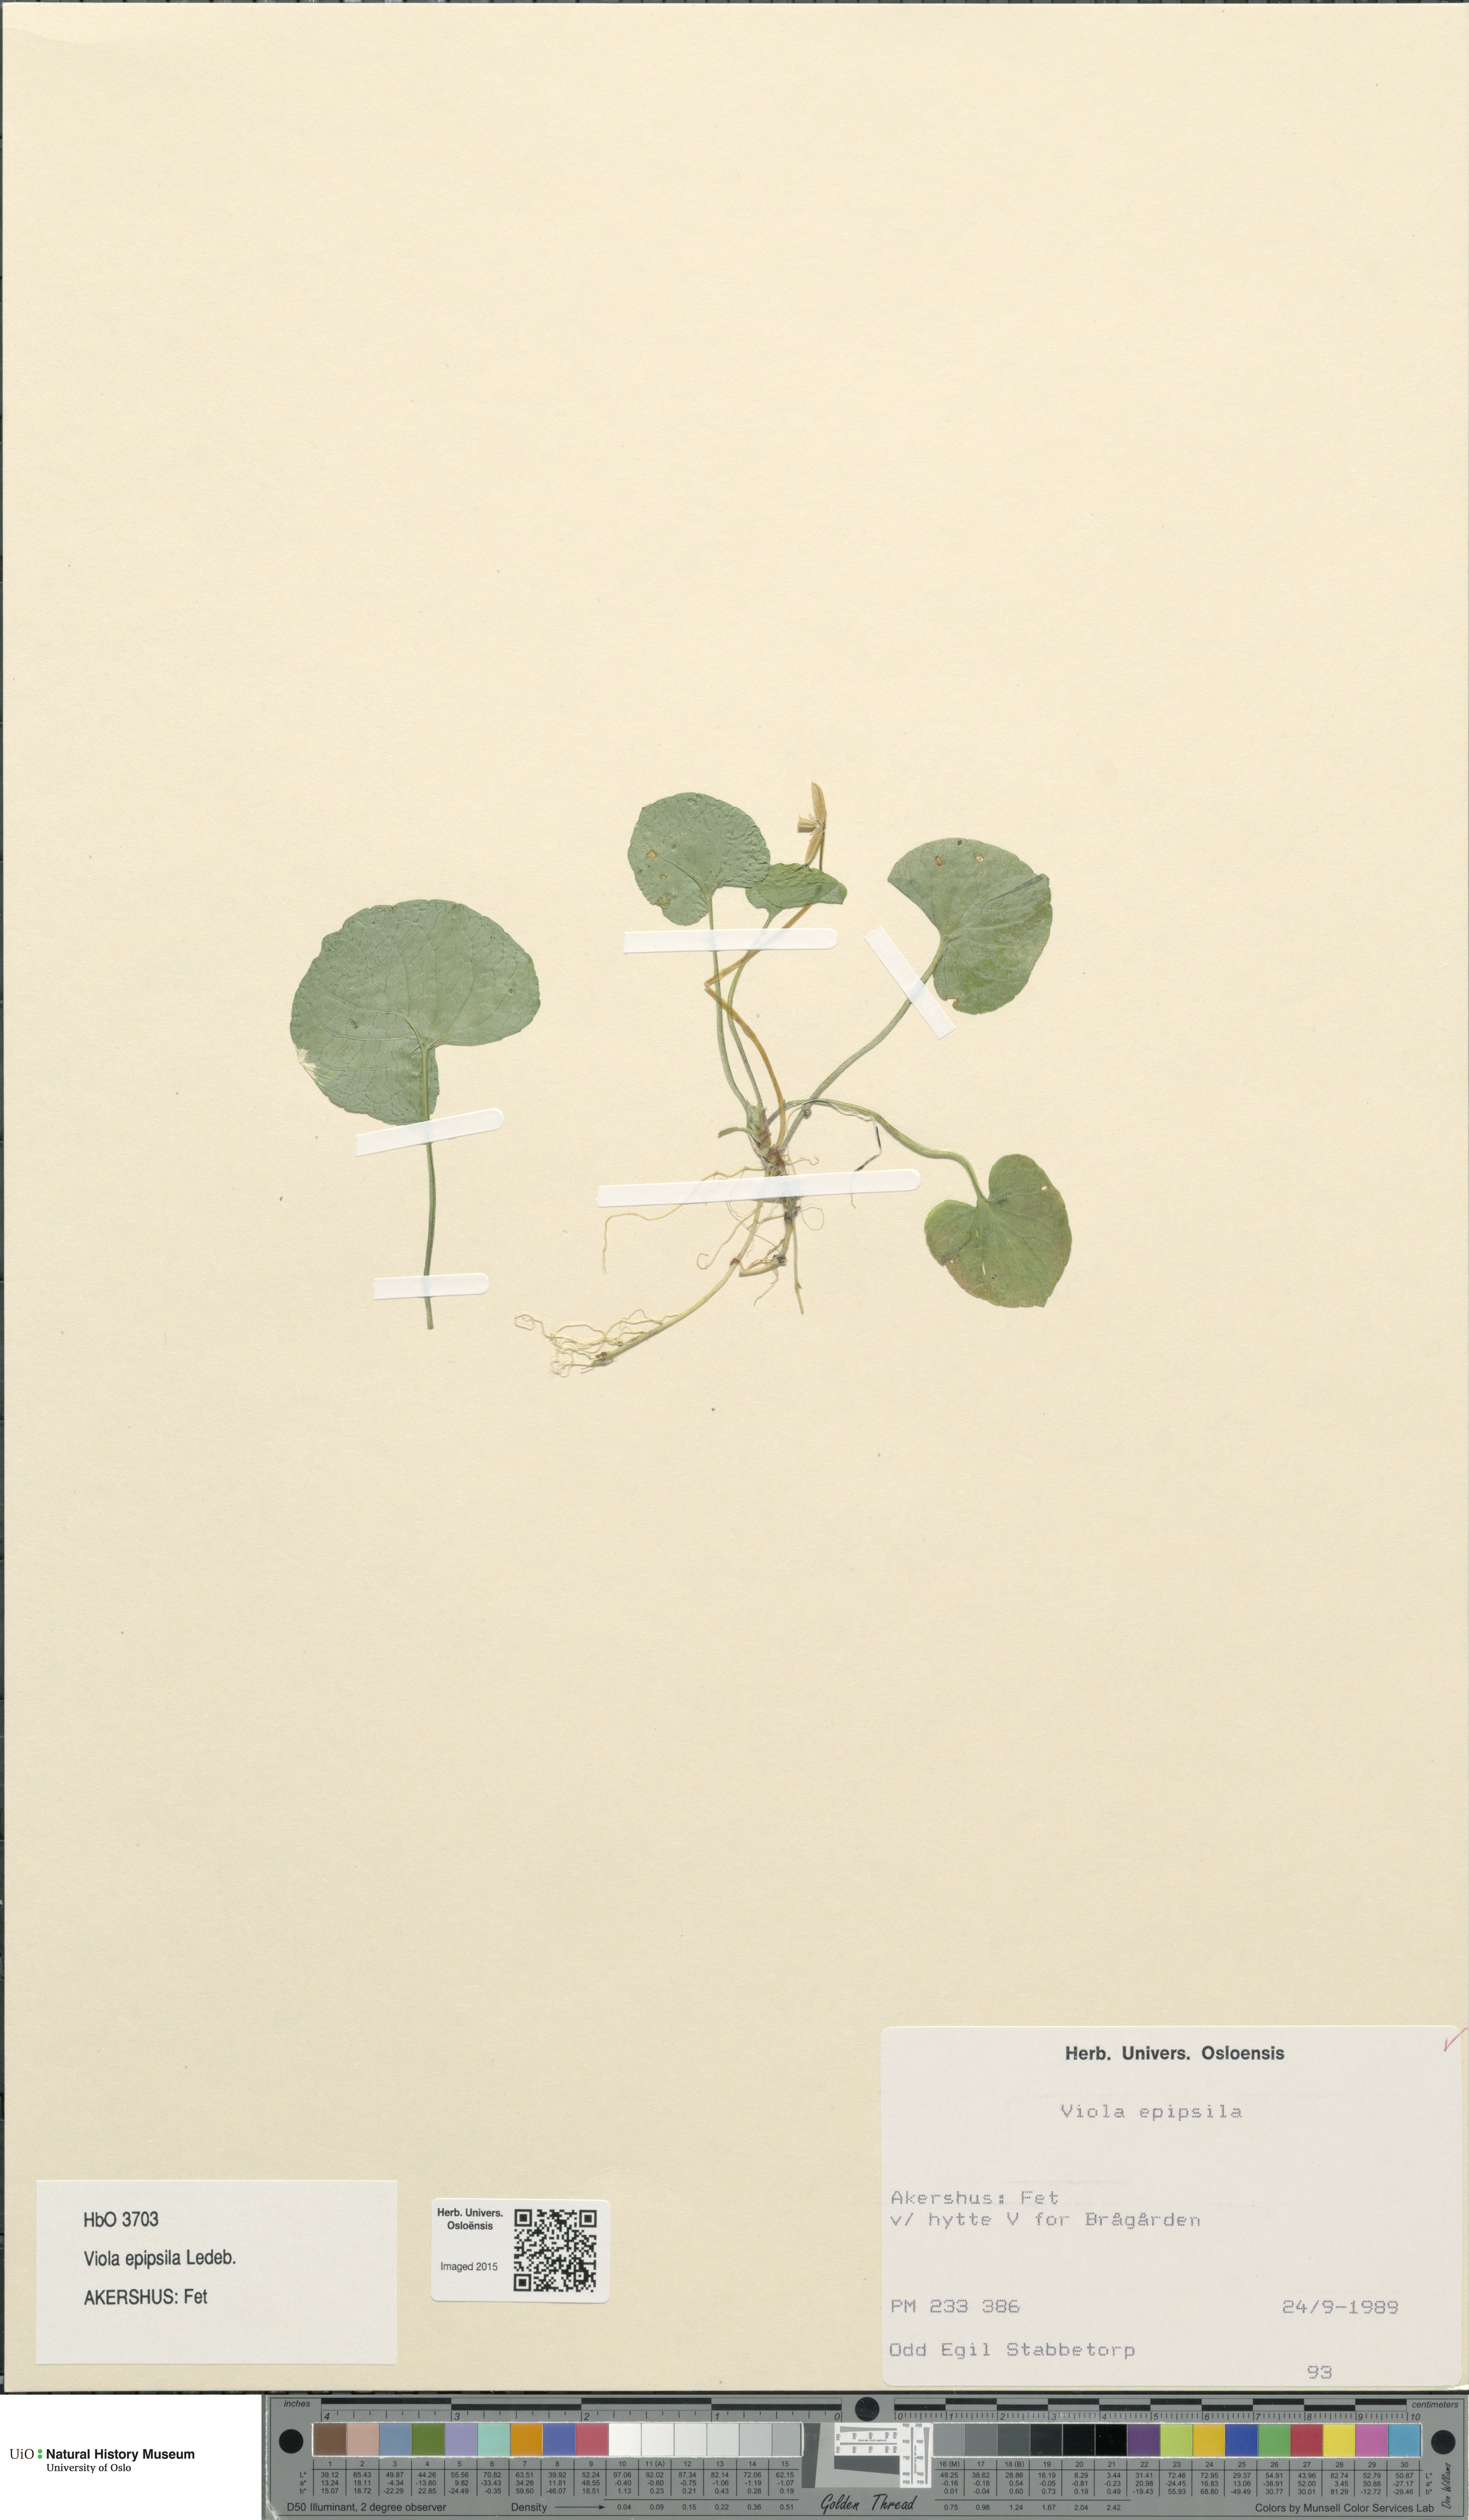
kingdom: Plantae
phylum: Tracheophyta
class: Magnoliopsida
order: Malpighiales
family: Violaceae
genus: Viola
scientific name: Viola epipsila
